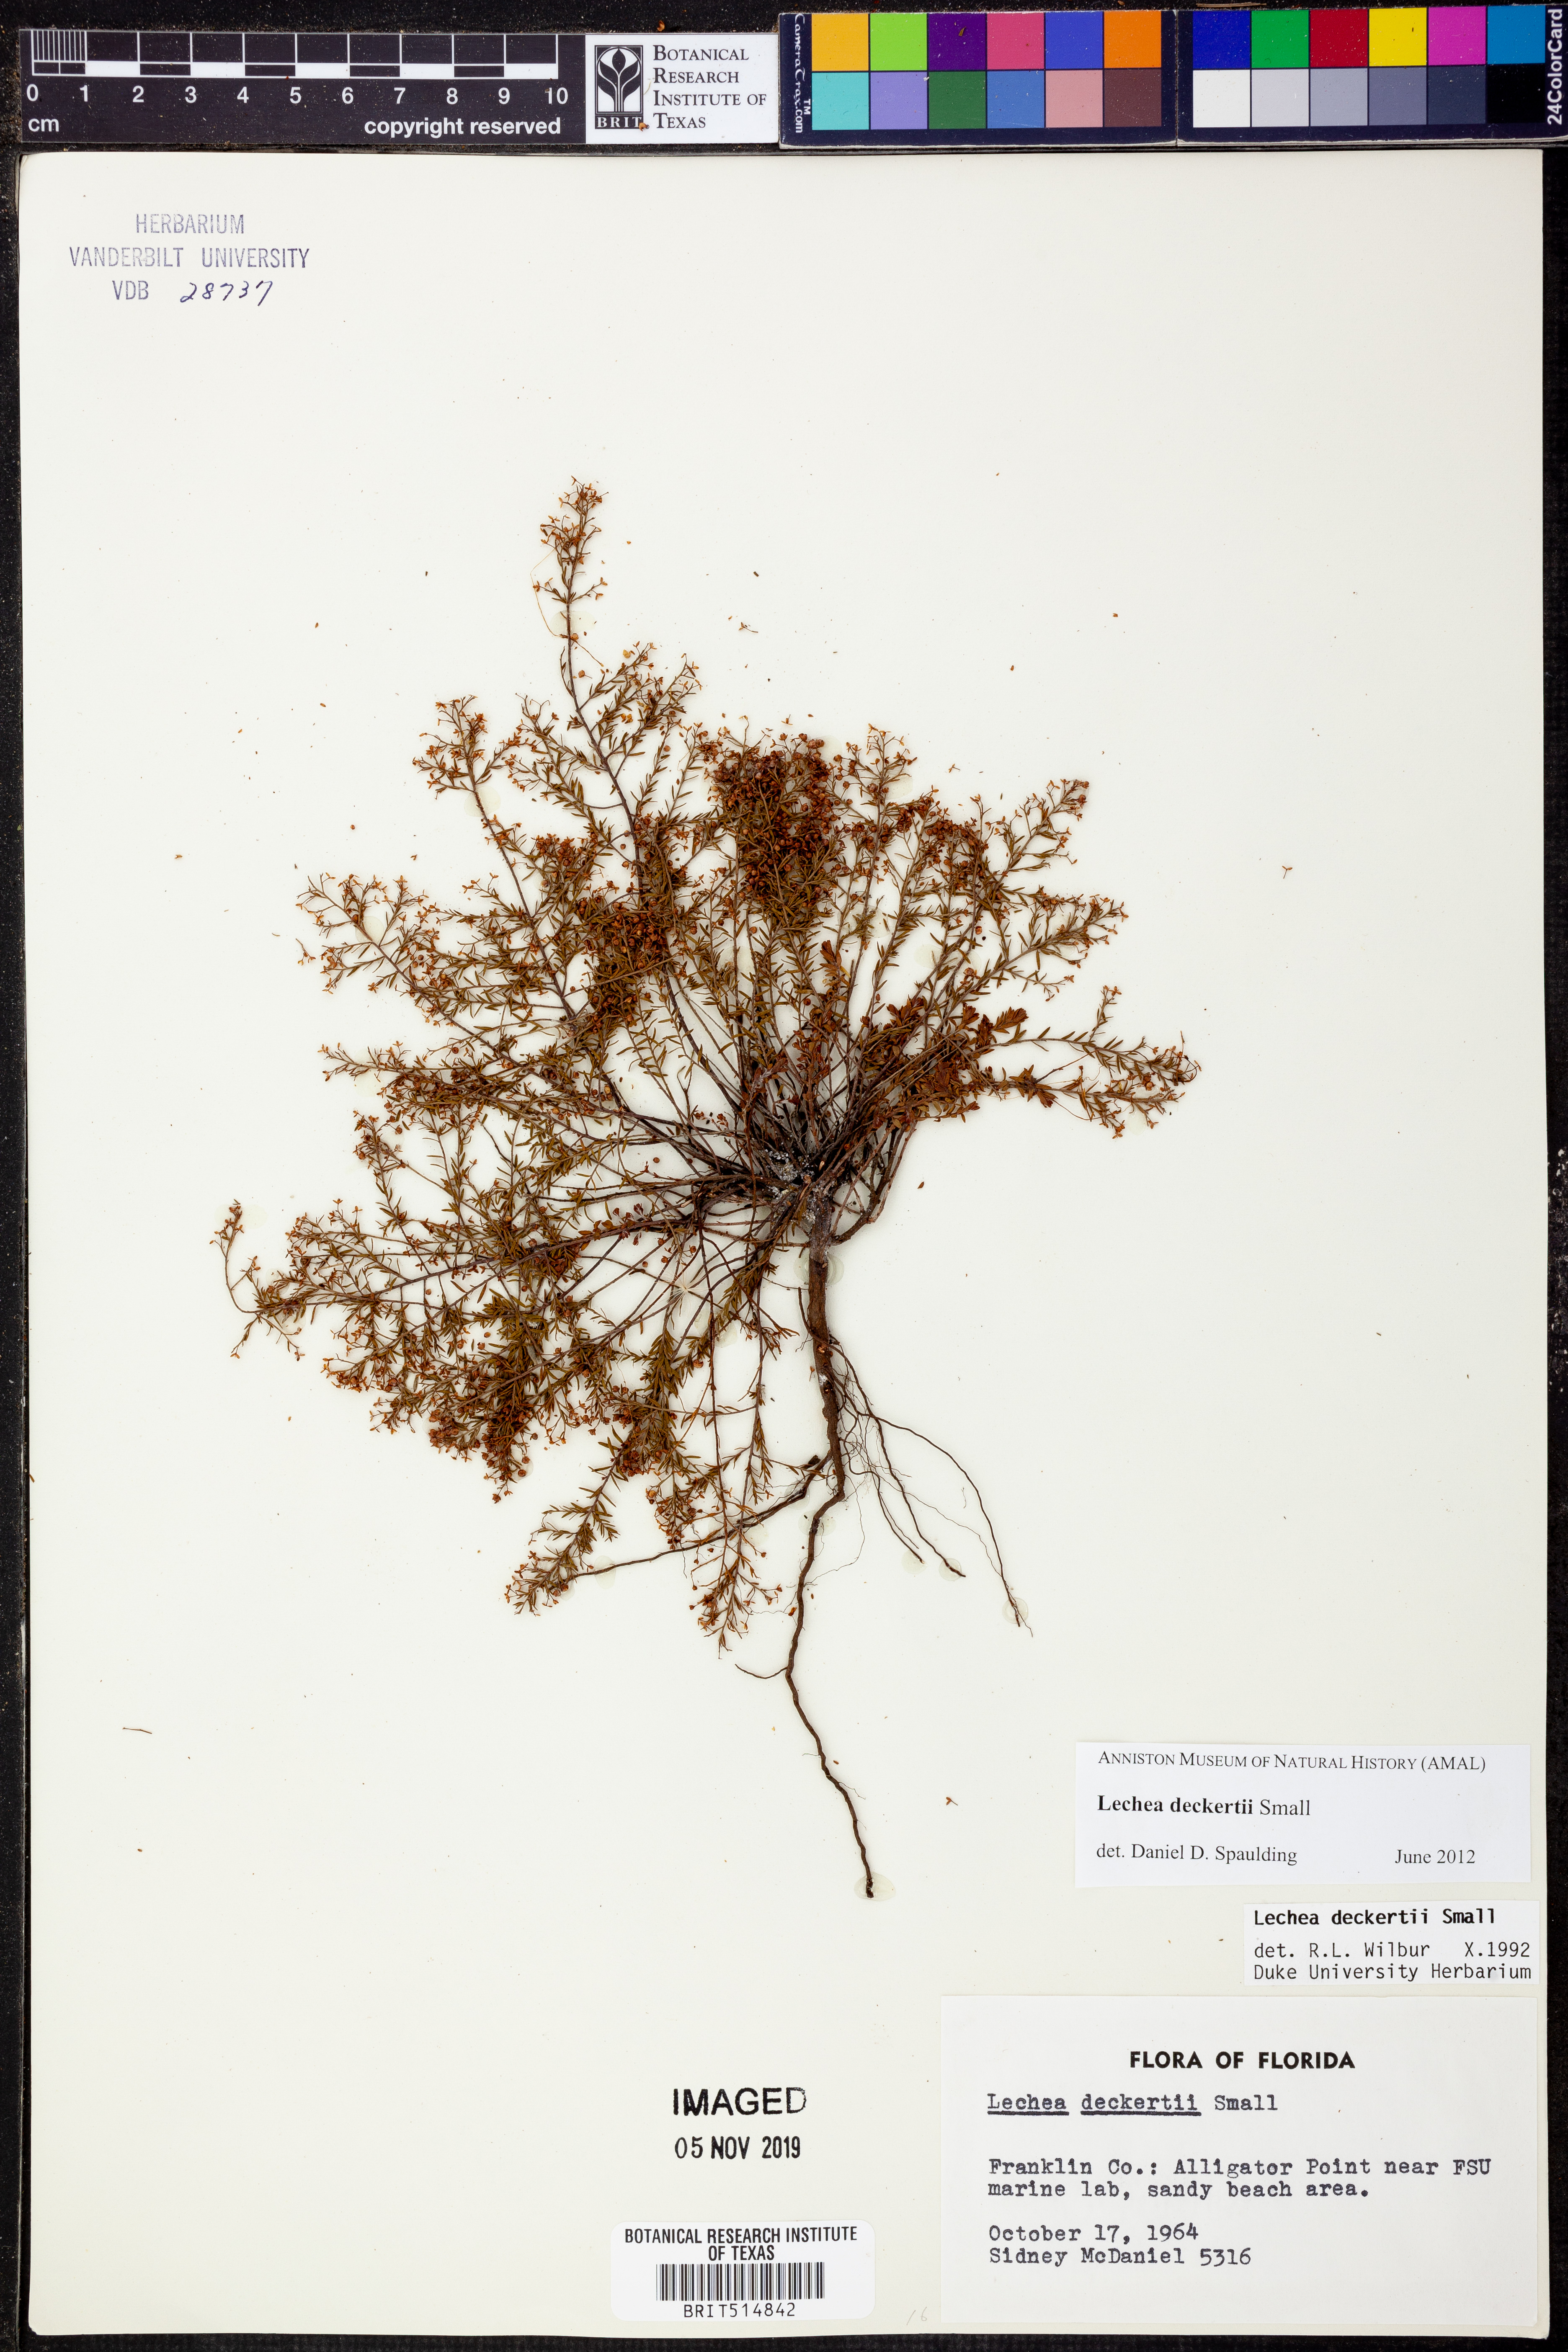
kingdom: Plantae
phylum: Tracheophyta
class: Magnoliopsida
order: Malvales
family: Cistaceae
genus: Lechea
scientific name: Lechea deckertii
